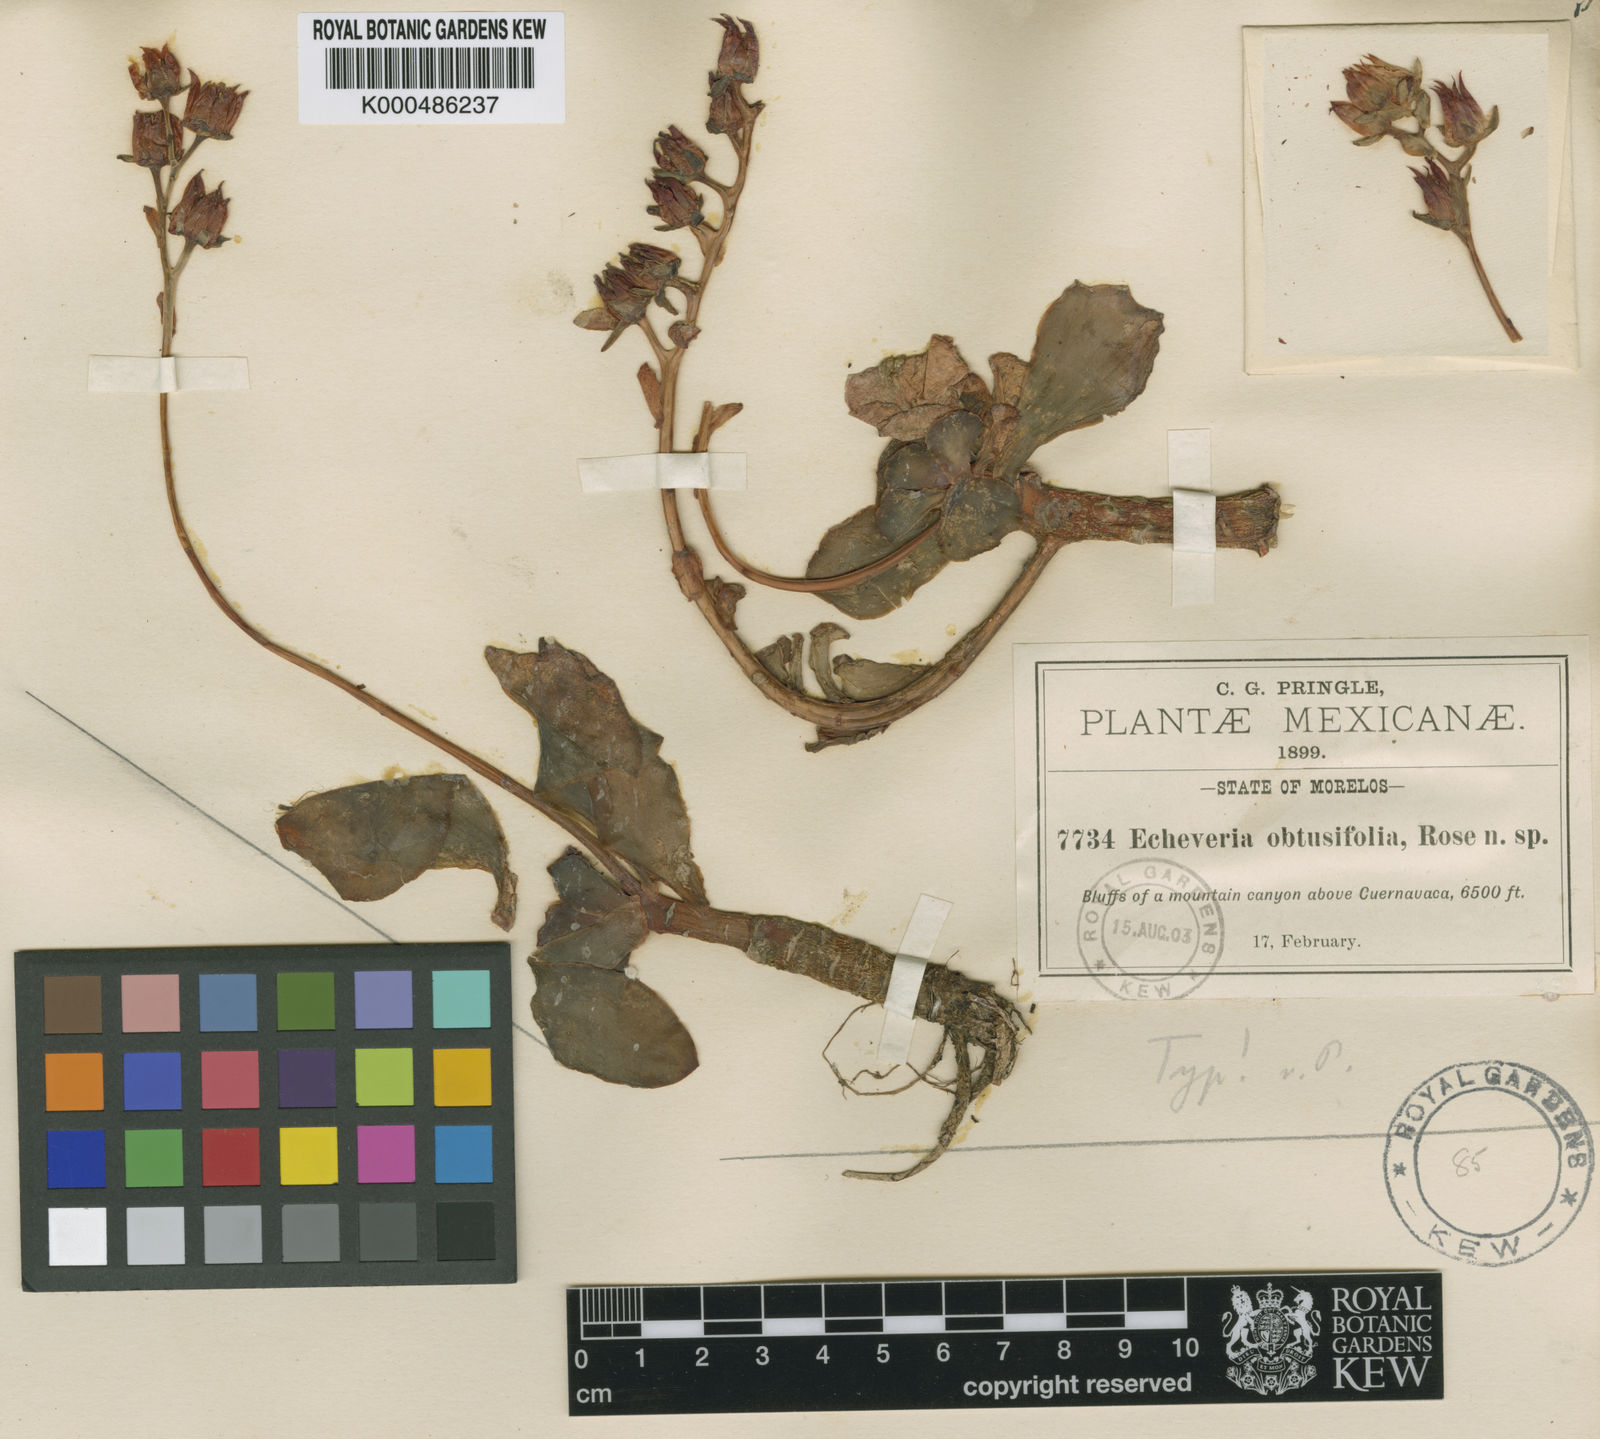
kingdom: Plantae
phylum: Tracheophyta
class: Magnoliopsida
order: Saxifragales
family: Crassulaceae
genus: Echeveria
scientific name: Echeveria fulgens
